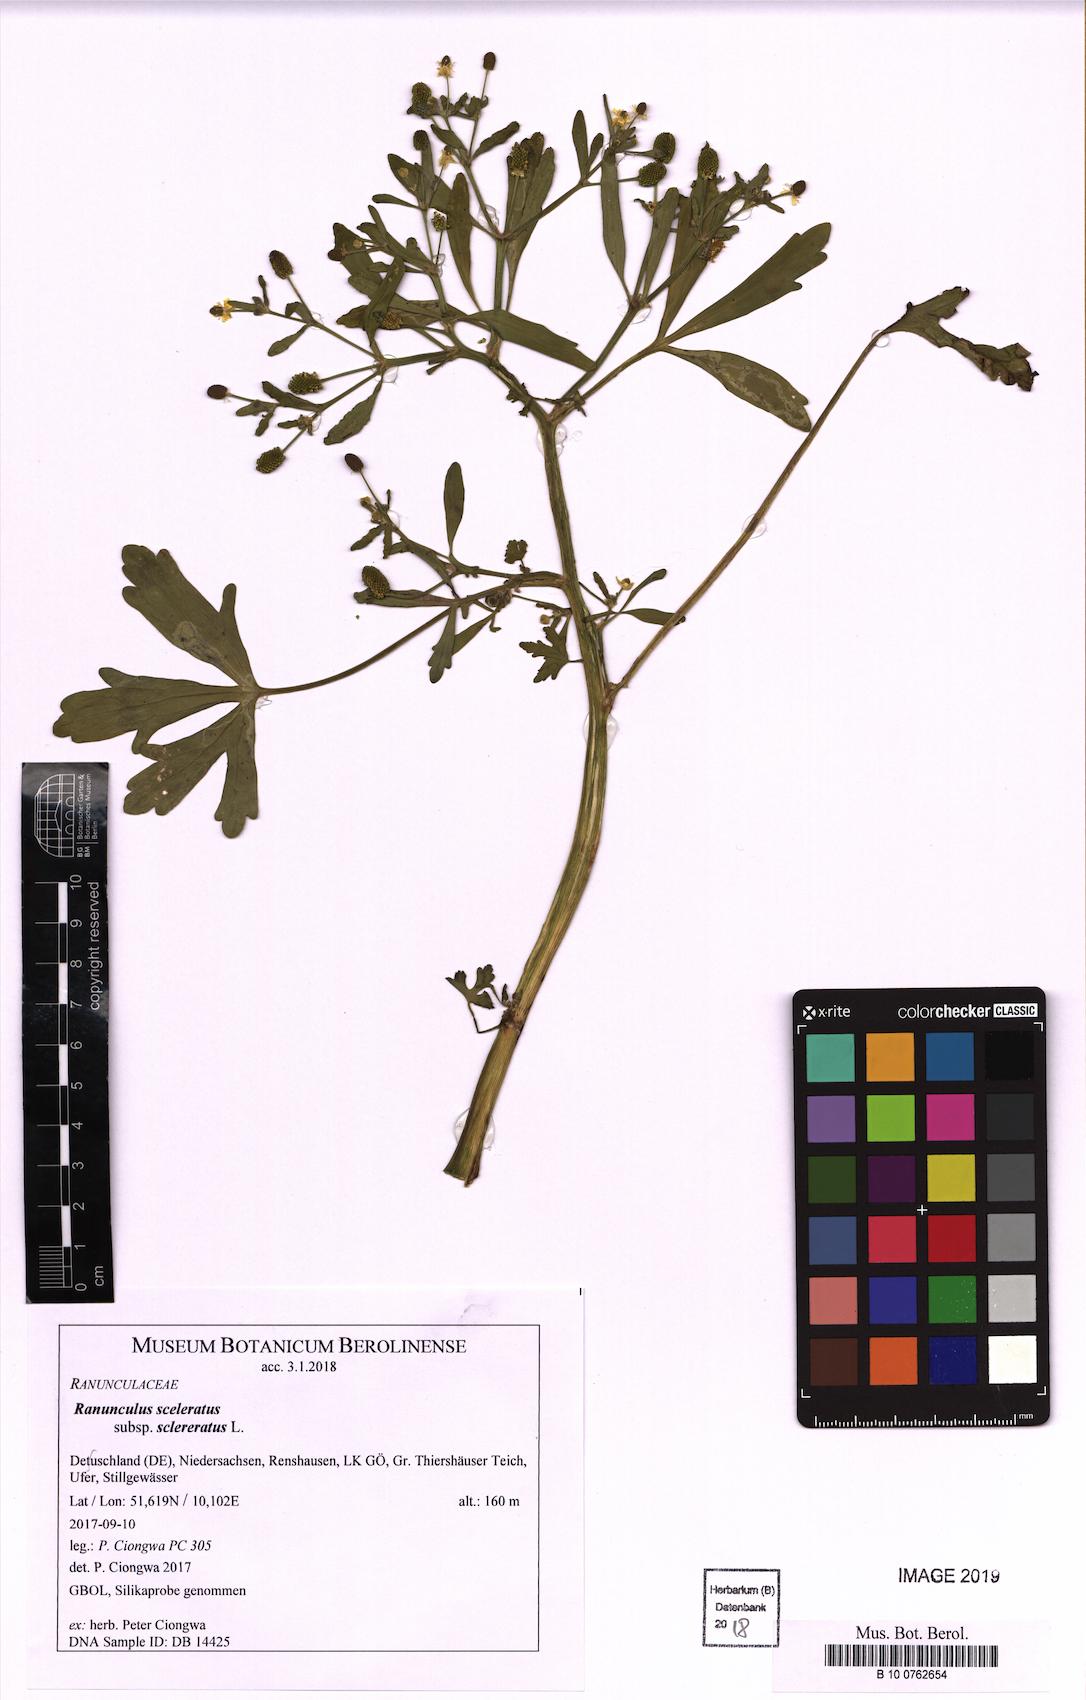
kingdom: Plantae
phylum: Tracheophyta
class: Magnoliopsida
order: Ranunculales
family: Ranunculaceae
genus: Ranunculus
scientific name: Ranunculus sceleratus
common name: Celery-leaved buttercup
